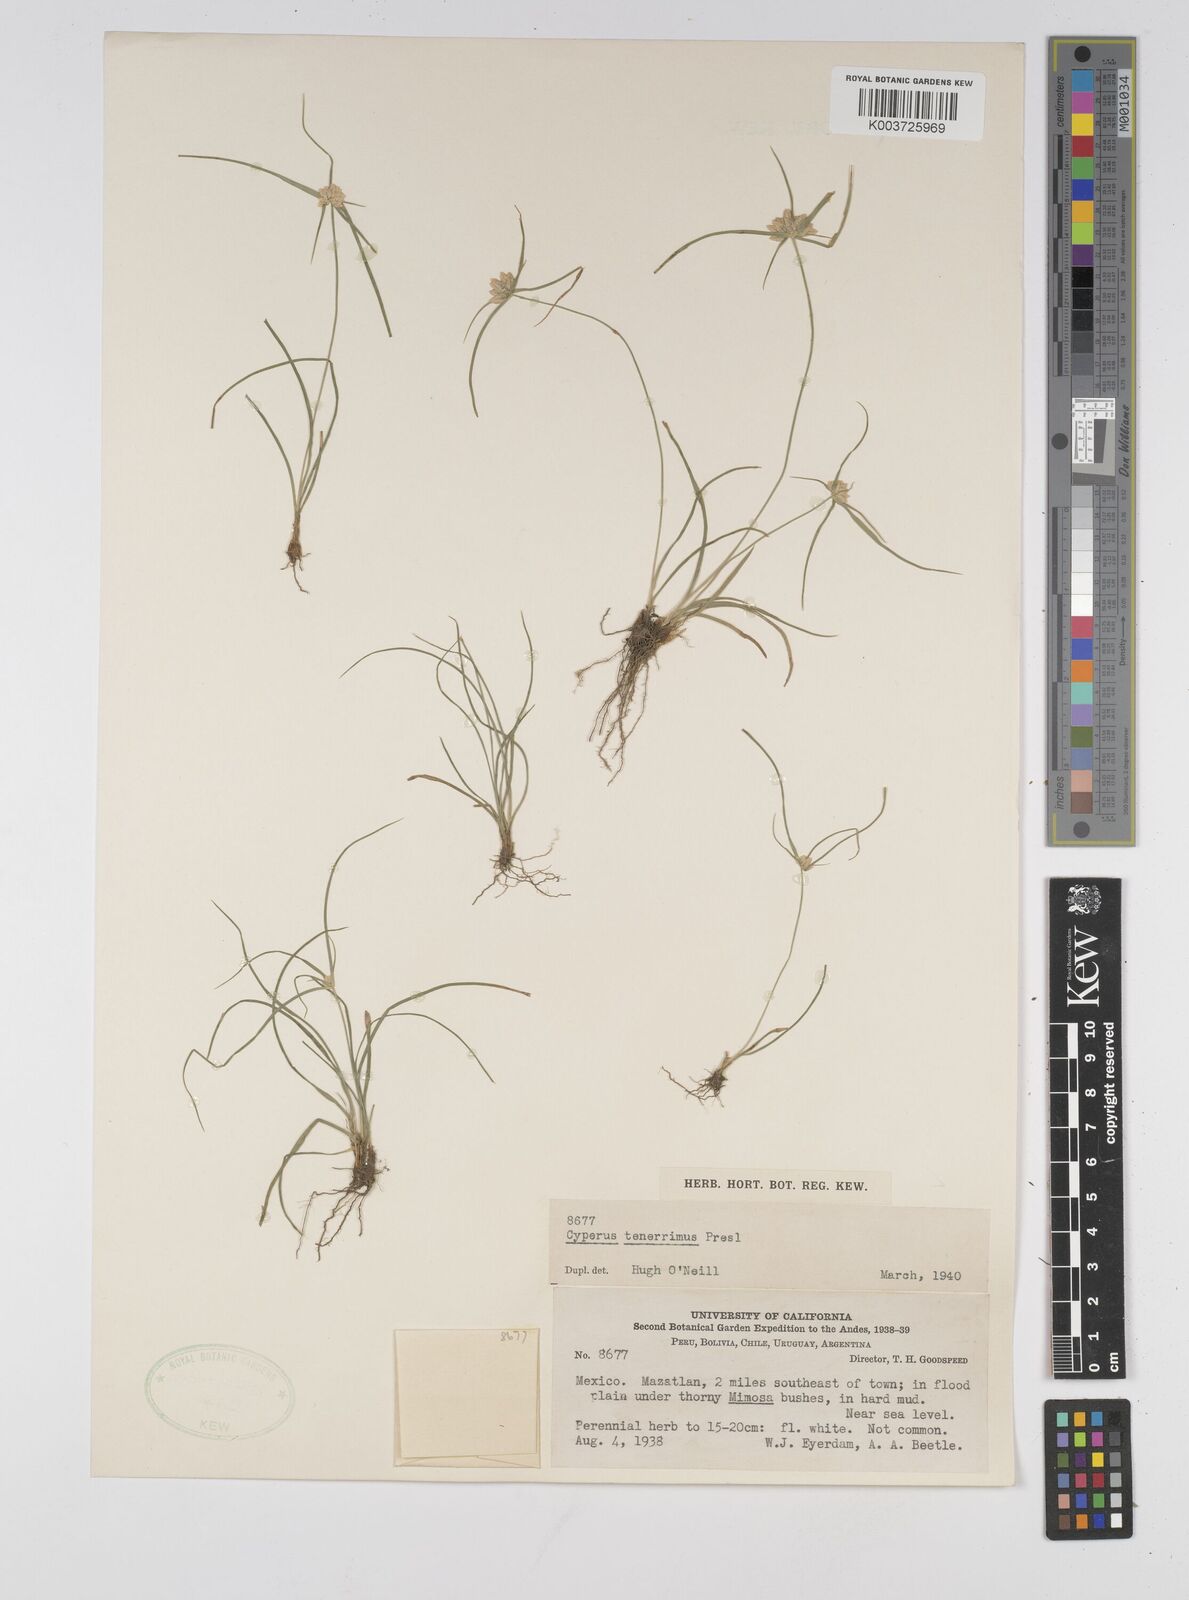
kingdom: Plantae
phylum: Tracheophyta
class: Liliopsida
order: Poales
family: Cyperaceae
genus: Cyperus
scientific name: Cyperus tenerrimus
